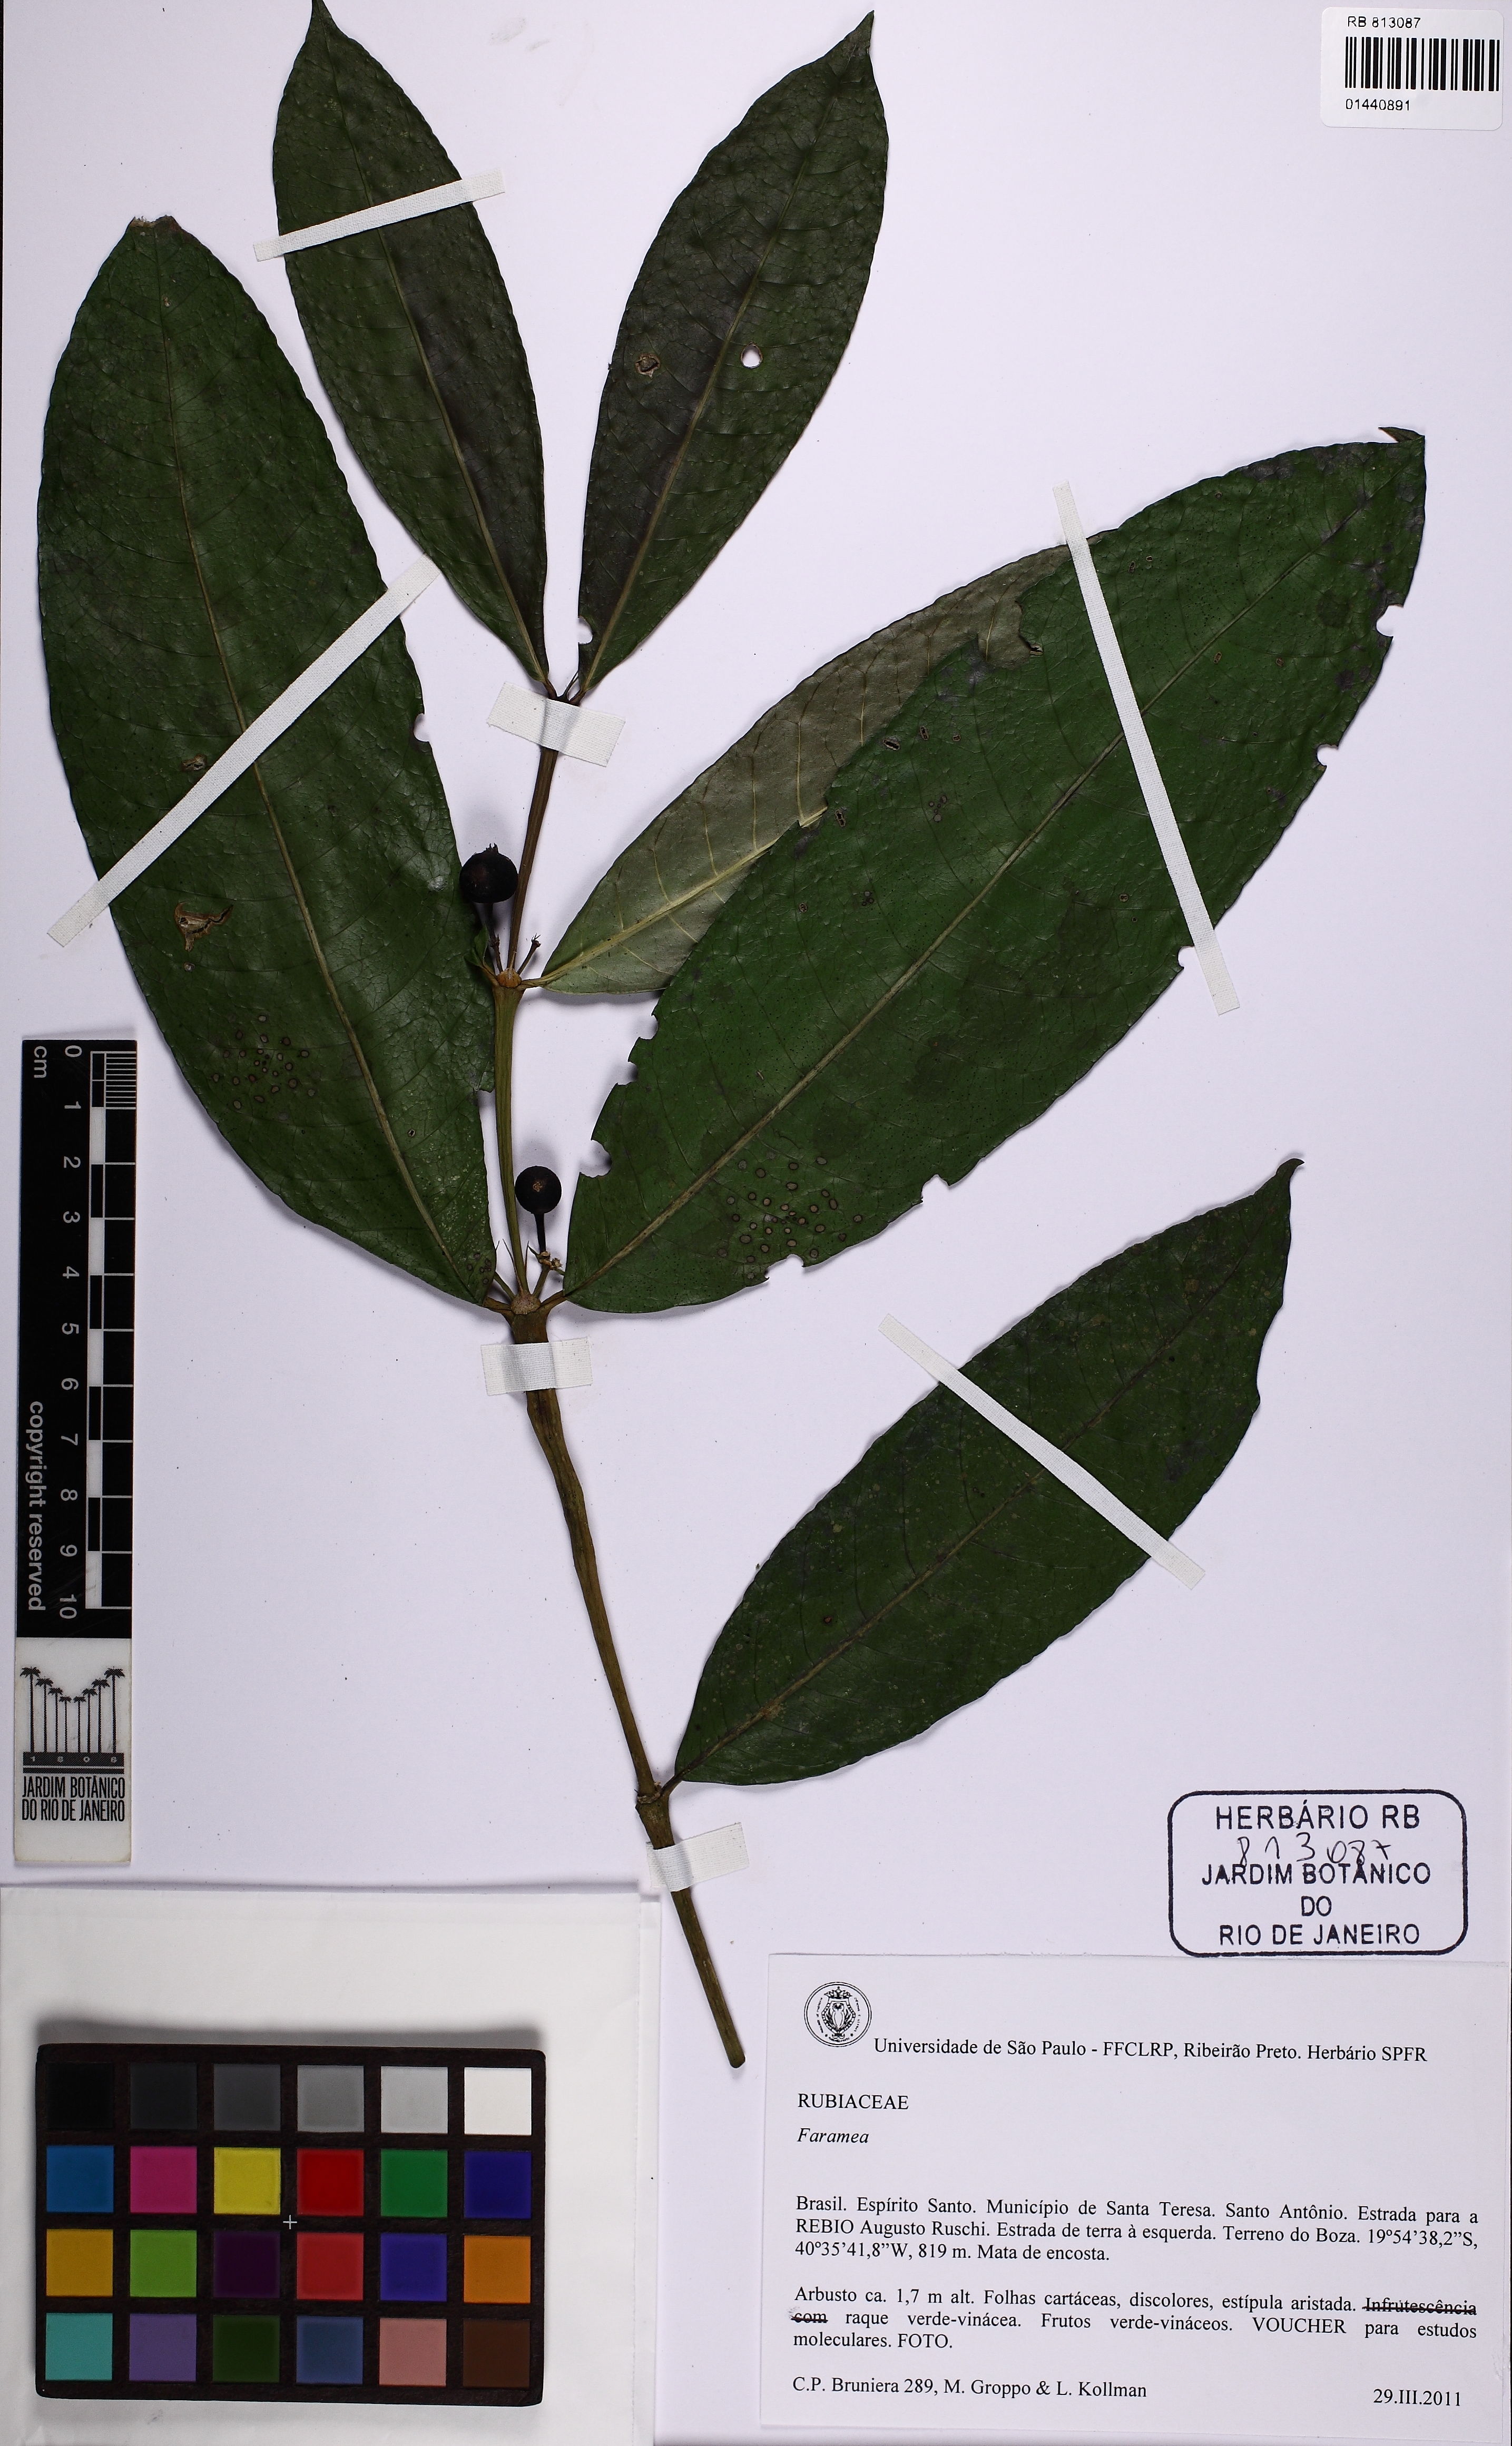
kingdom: Plantae
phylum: Tracheophyta
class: Magnoliopsida
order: Gentianales
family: Rubiaceae
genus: Faramea
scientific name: Faramea axilliflora
